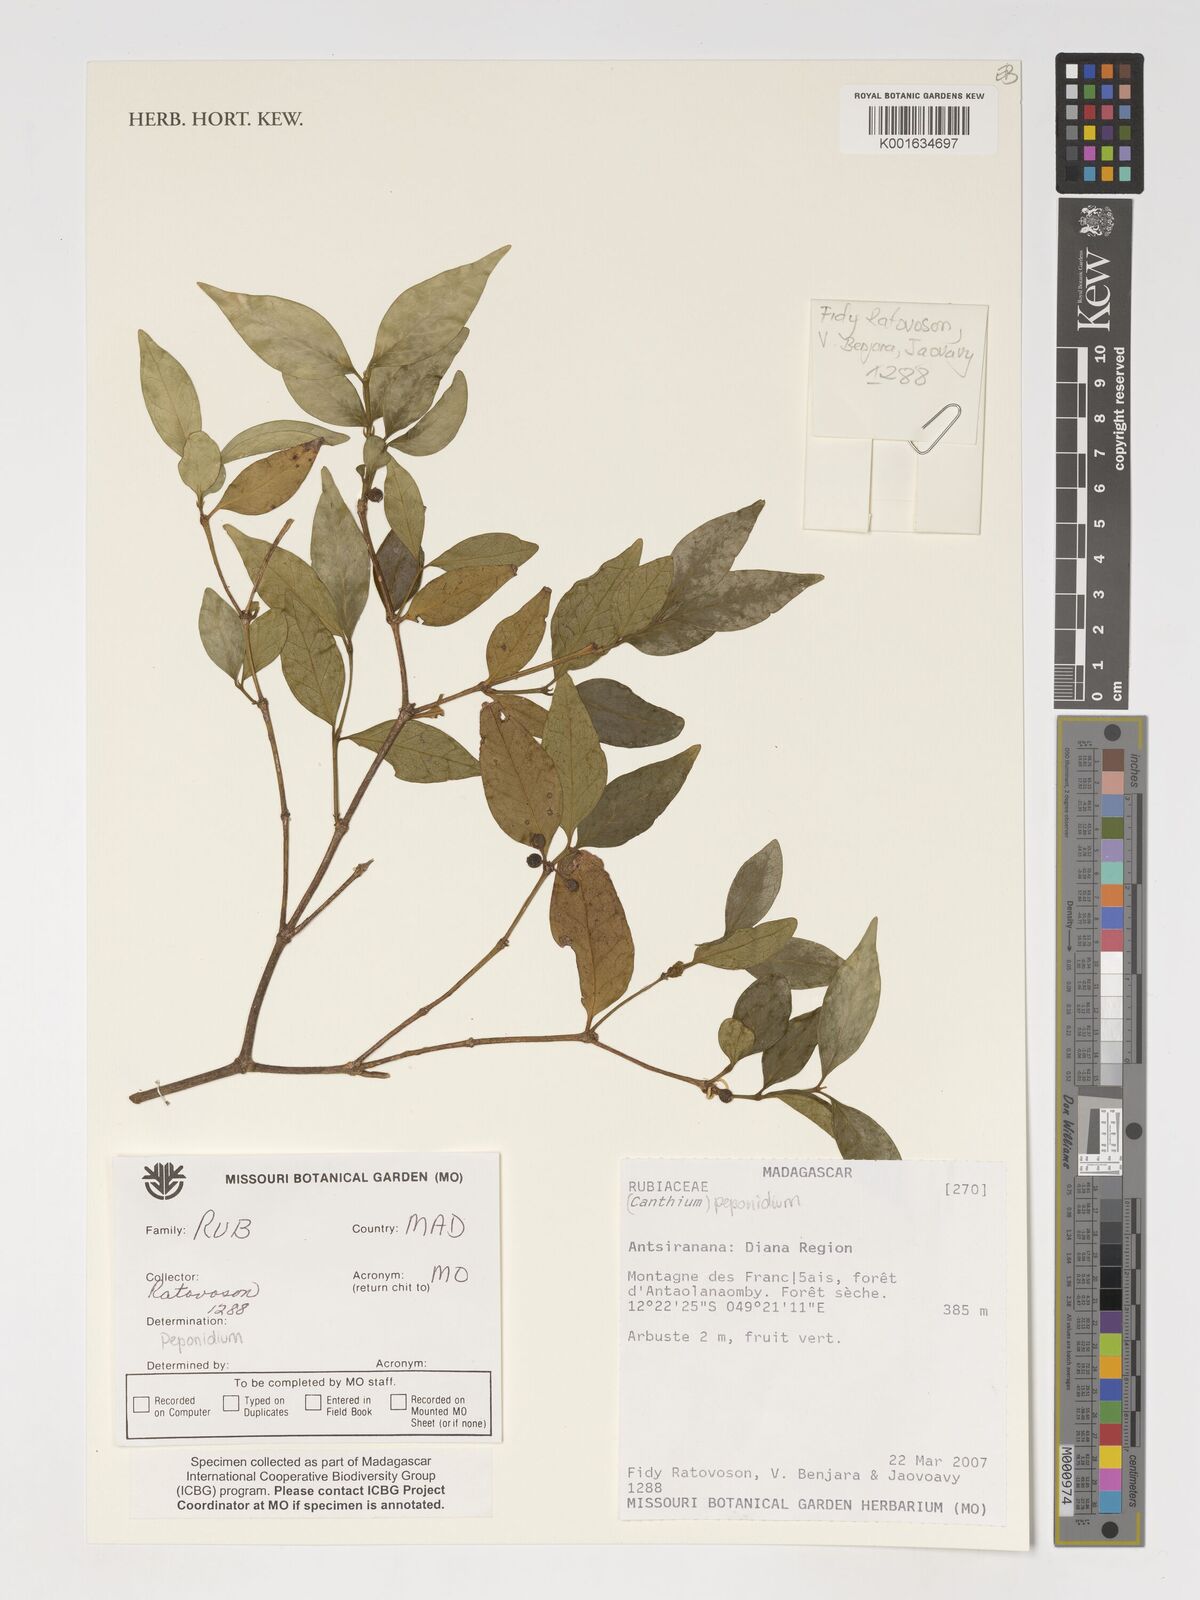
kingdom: Plantae
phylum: Tracheophyta
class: Magnoliopsida
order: Gentianales
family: Rubiaceae
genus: Peponidium
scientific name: Peponidium
